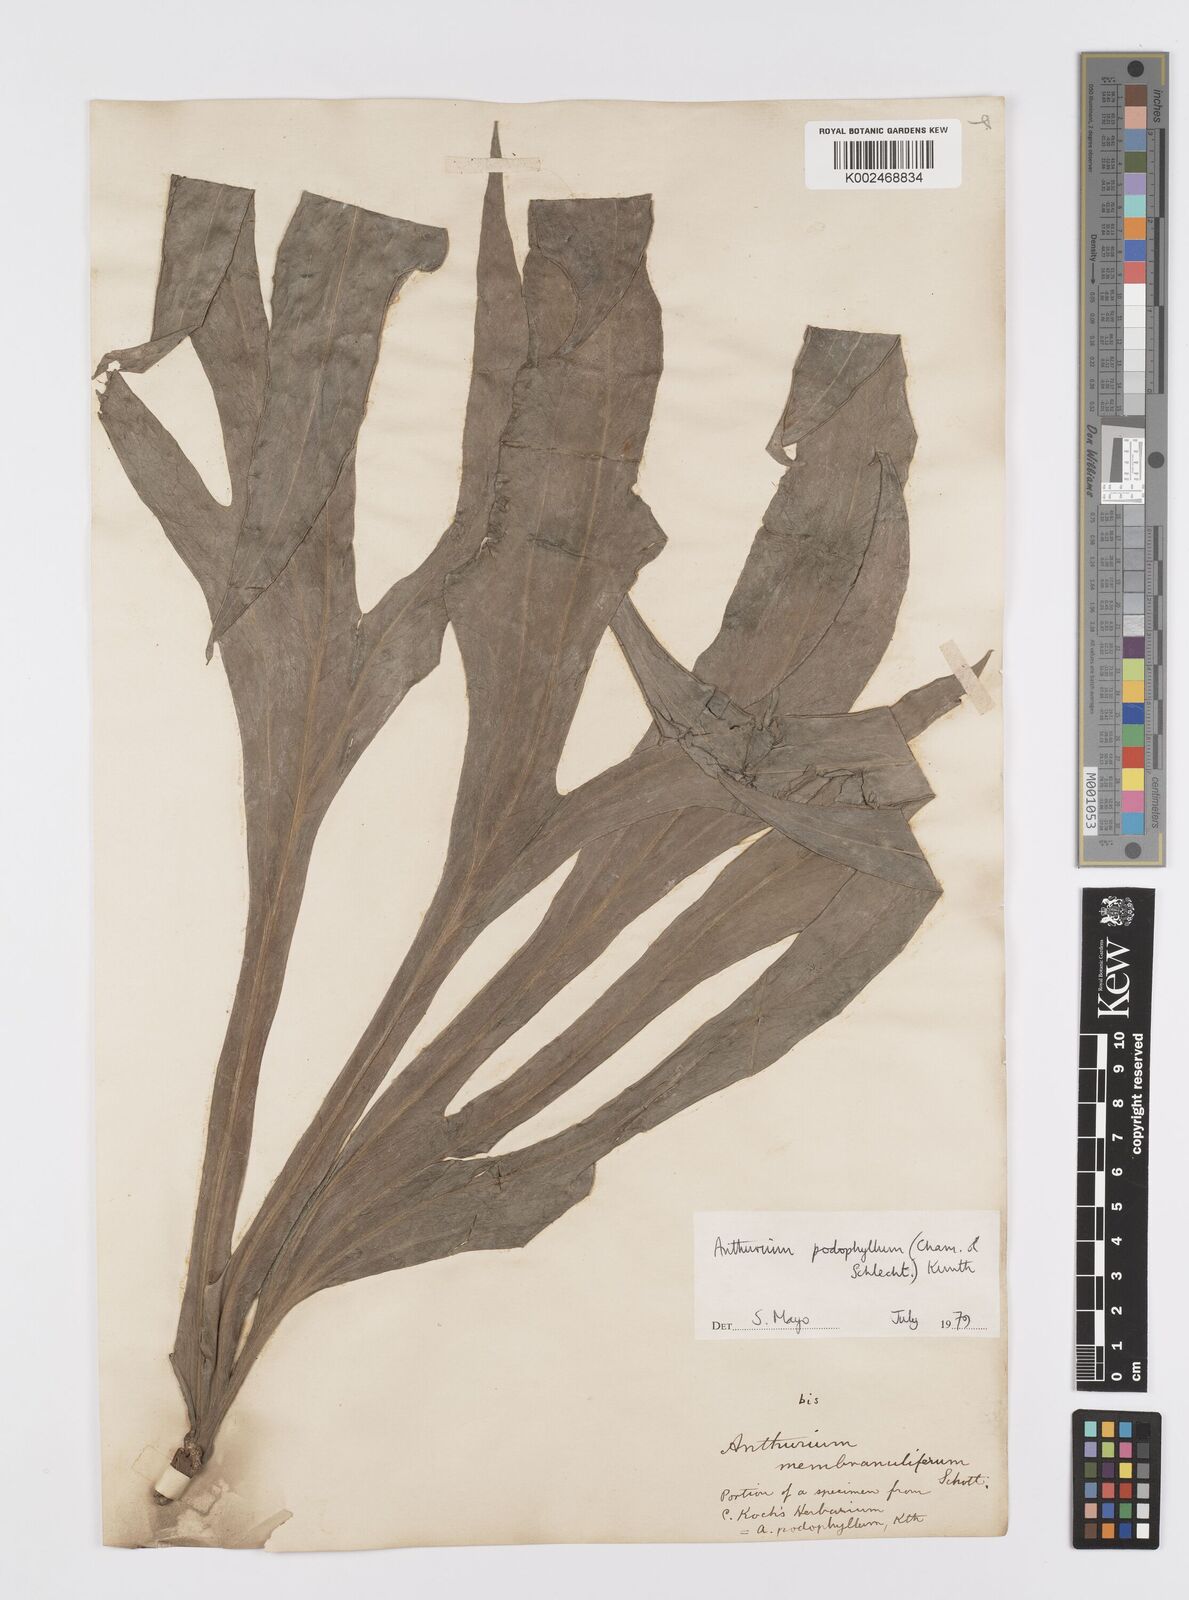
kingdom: Plantae
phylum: Tracheophyta
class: Liliopsida
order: Alismatales
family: Araceae
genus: Anthurium
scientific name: Anthurium podophyllum
